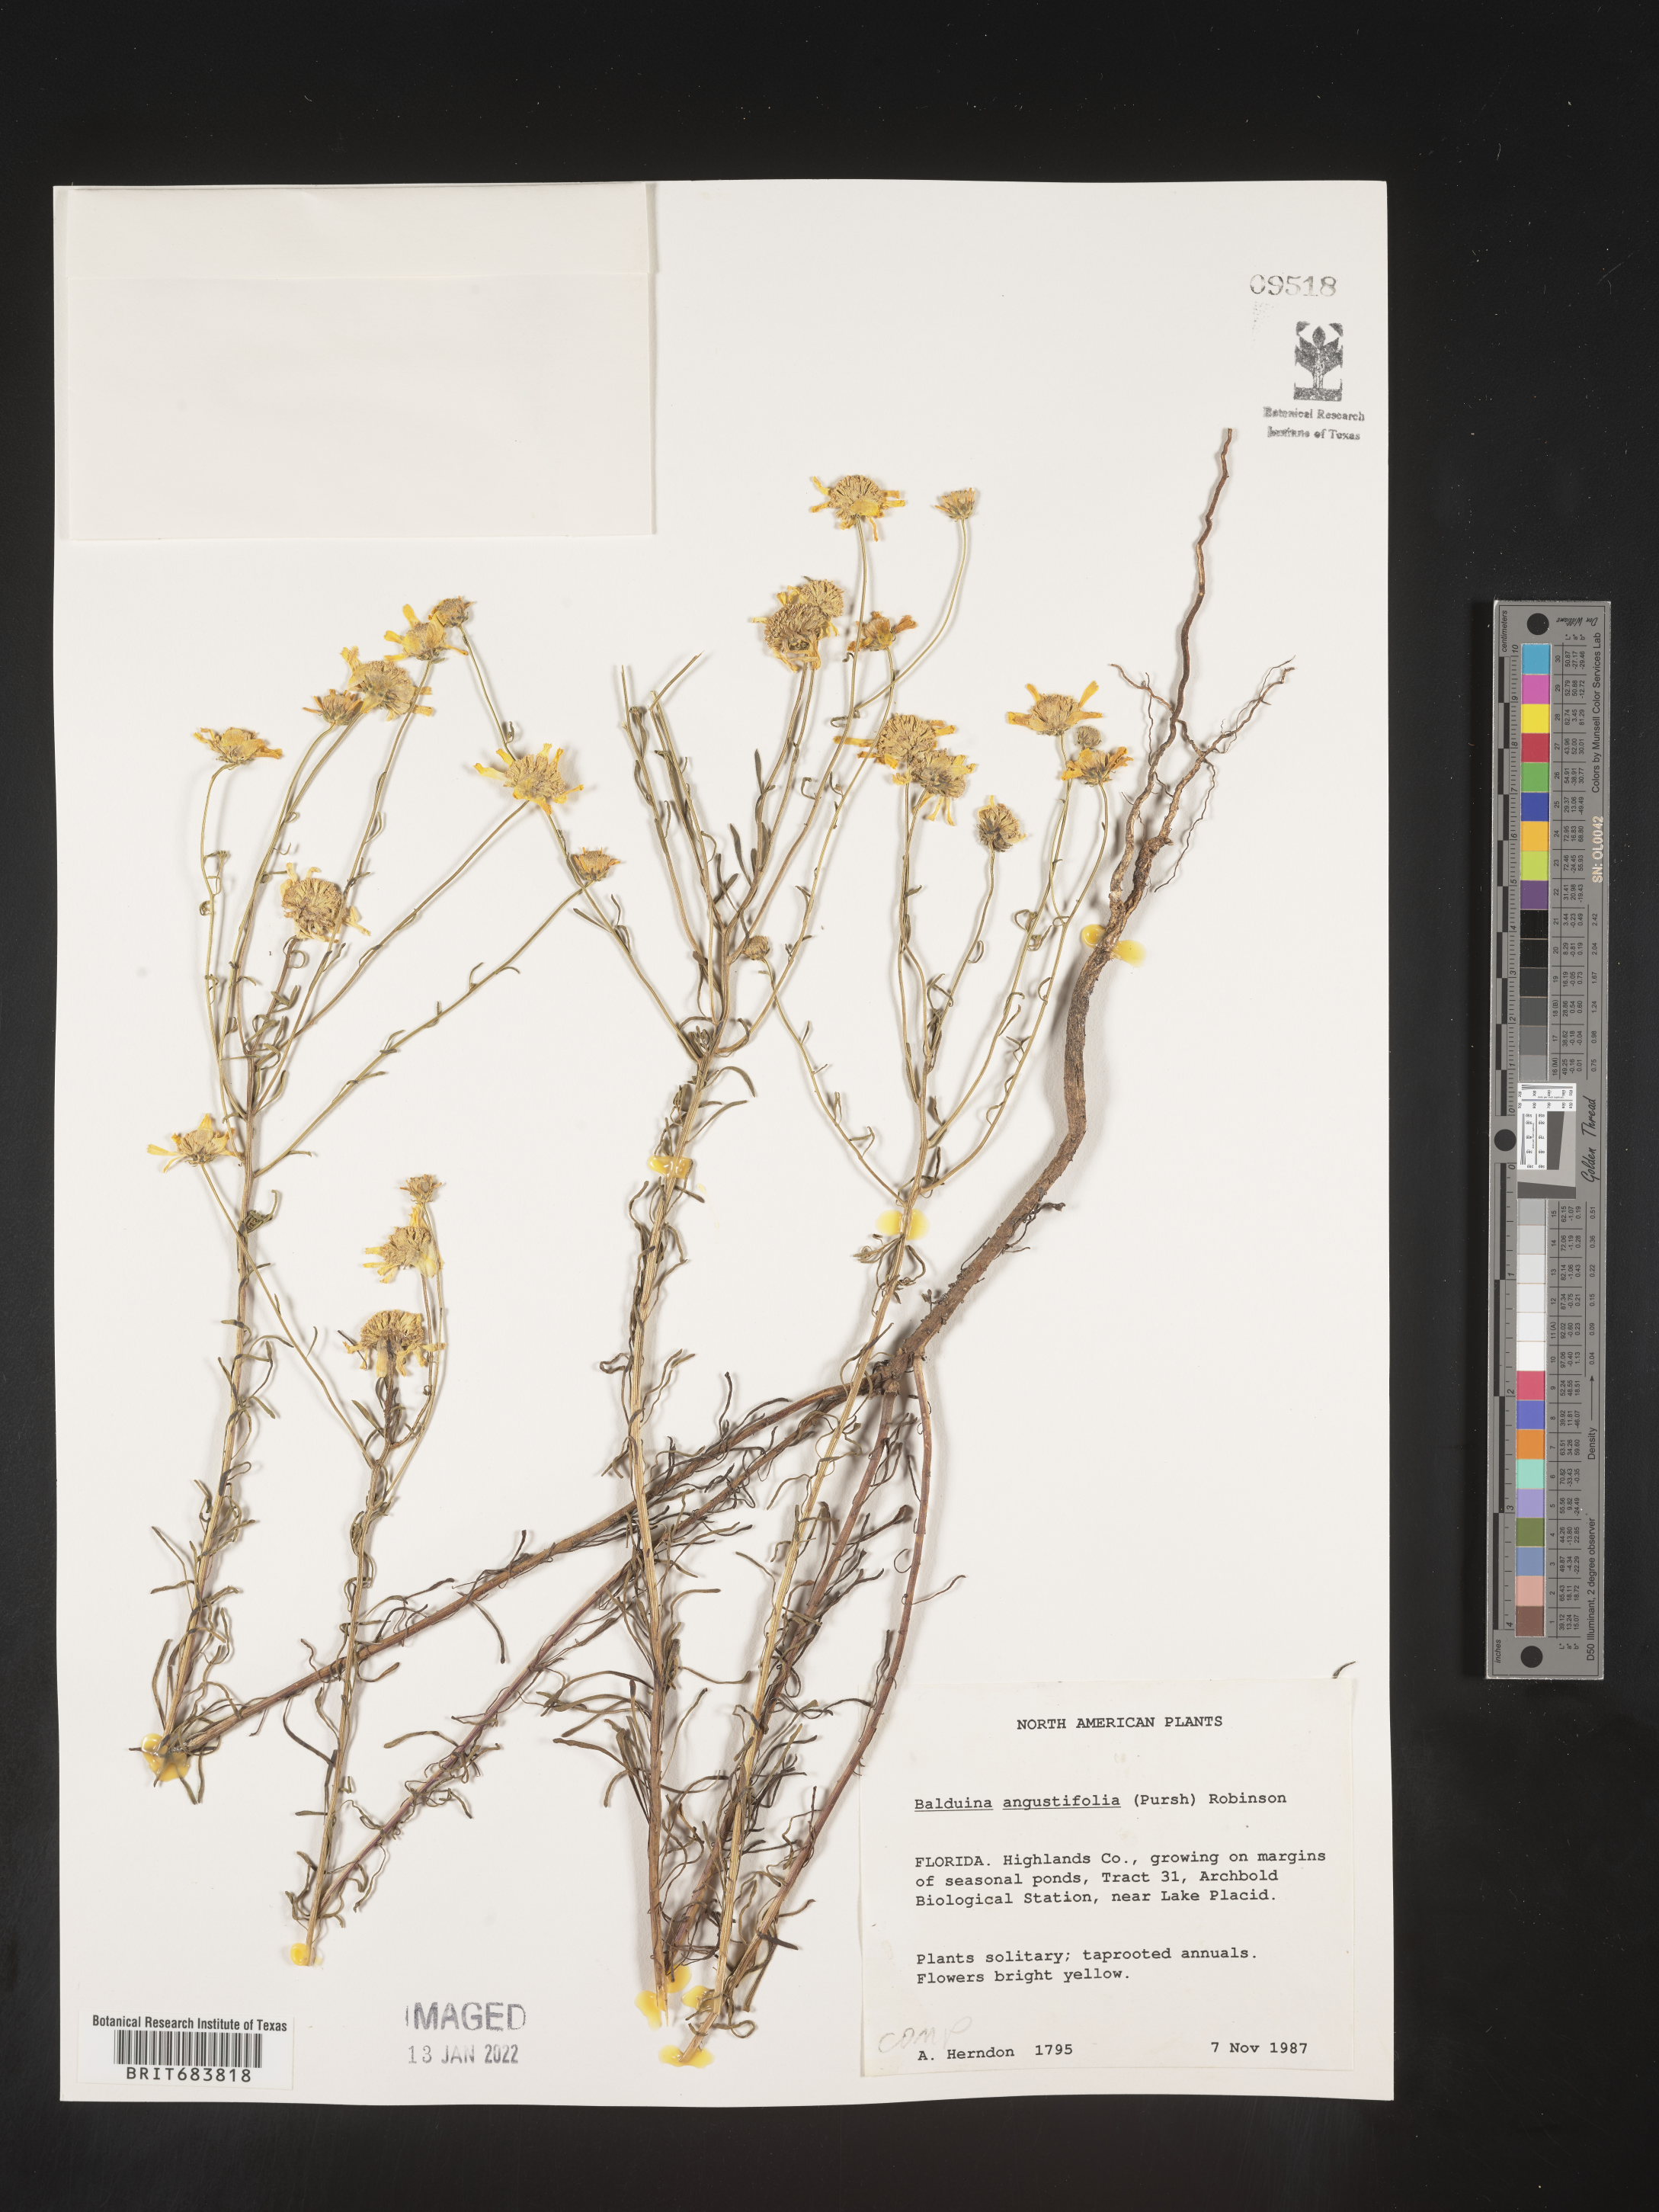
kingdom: Plantae
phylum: Tracheophyta
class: Magnoliopsida
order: Asterales
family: Asteraceae
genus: Balduina
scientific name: Balduina angustifolia
